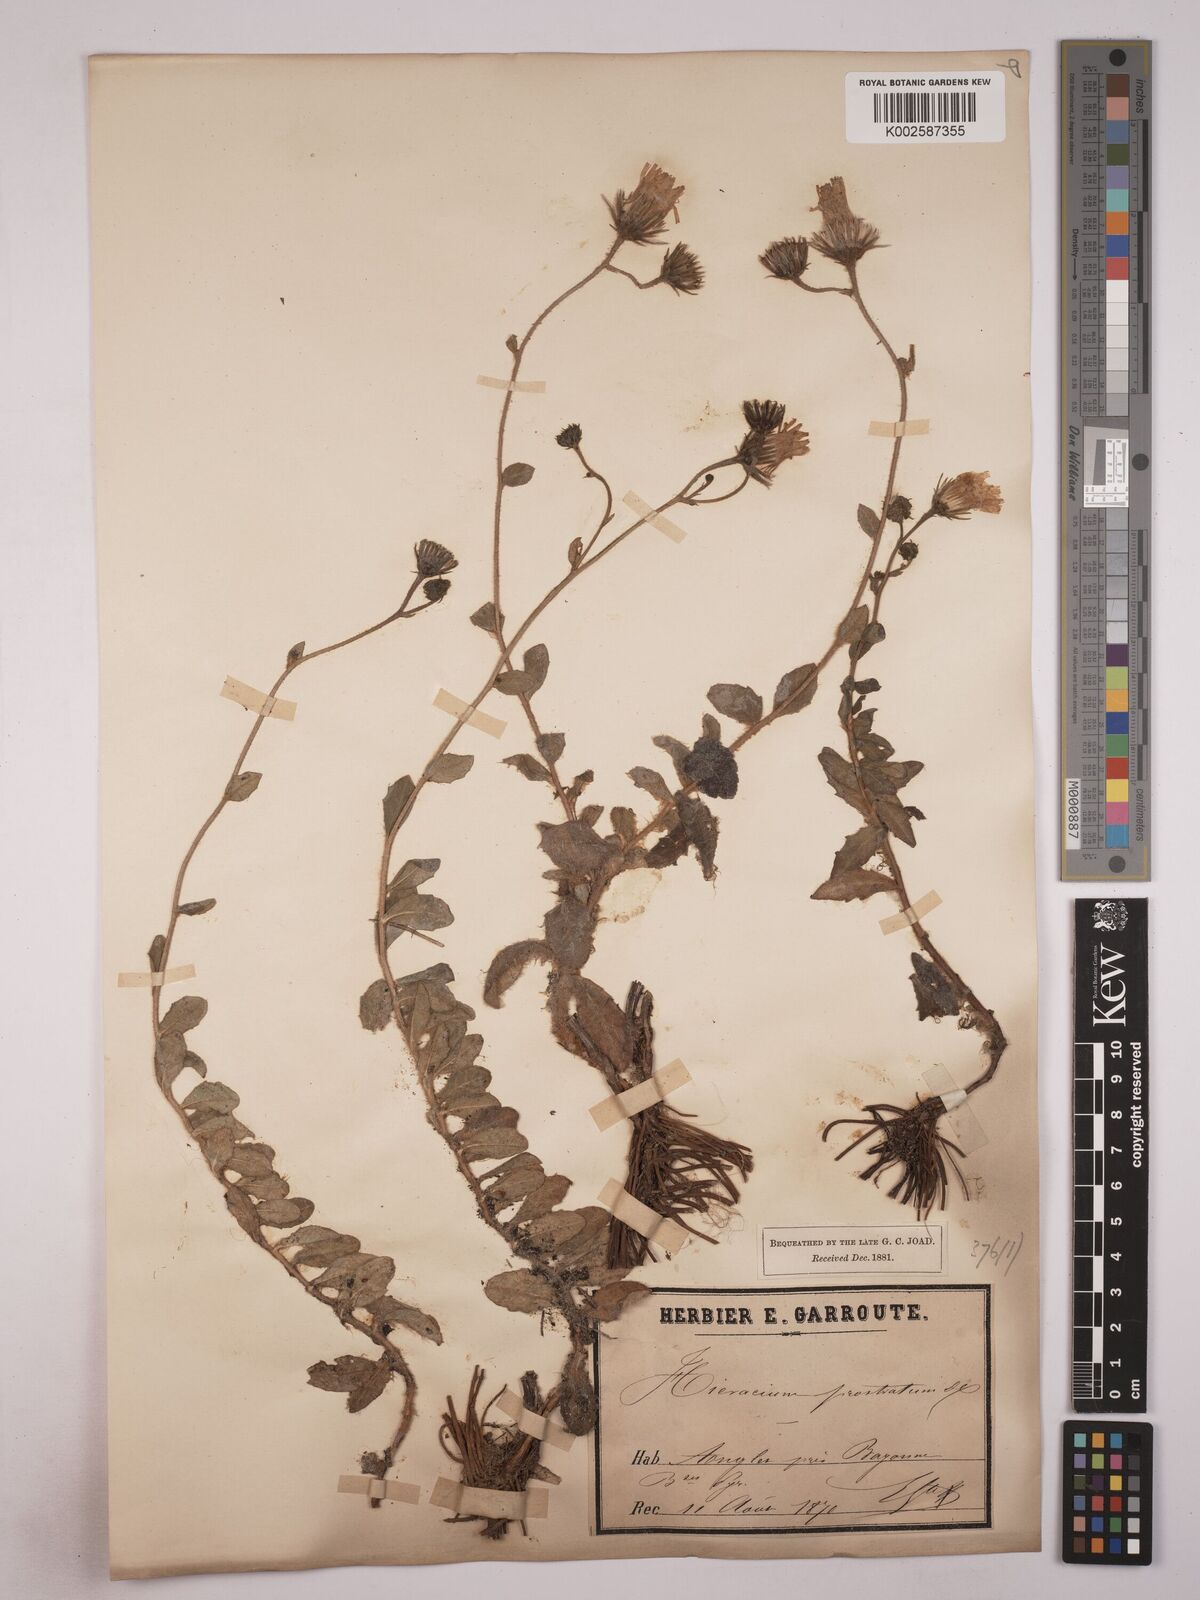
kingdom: Plantae
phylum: Tracheophyta
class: Magnoliopsida
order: Asterales
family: Asteraceae
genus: Hieracium
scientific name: Hieracium prostratum
